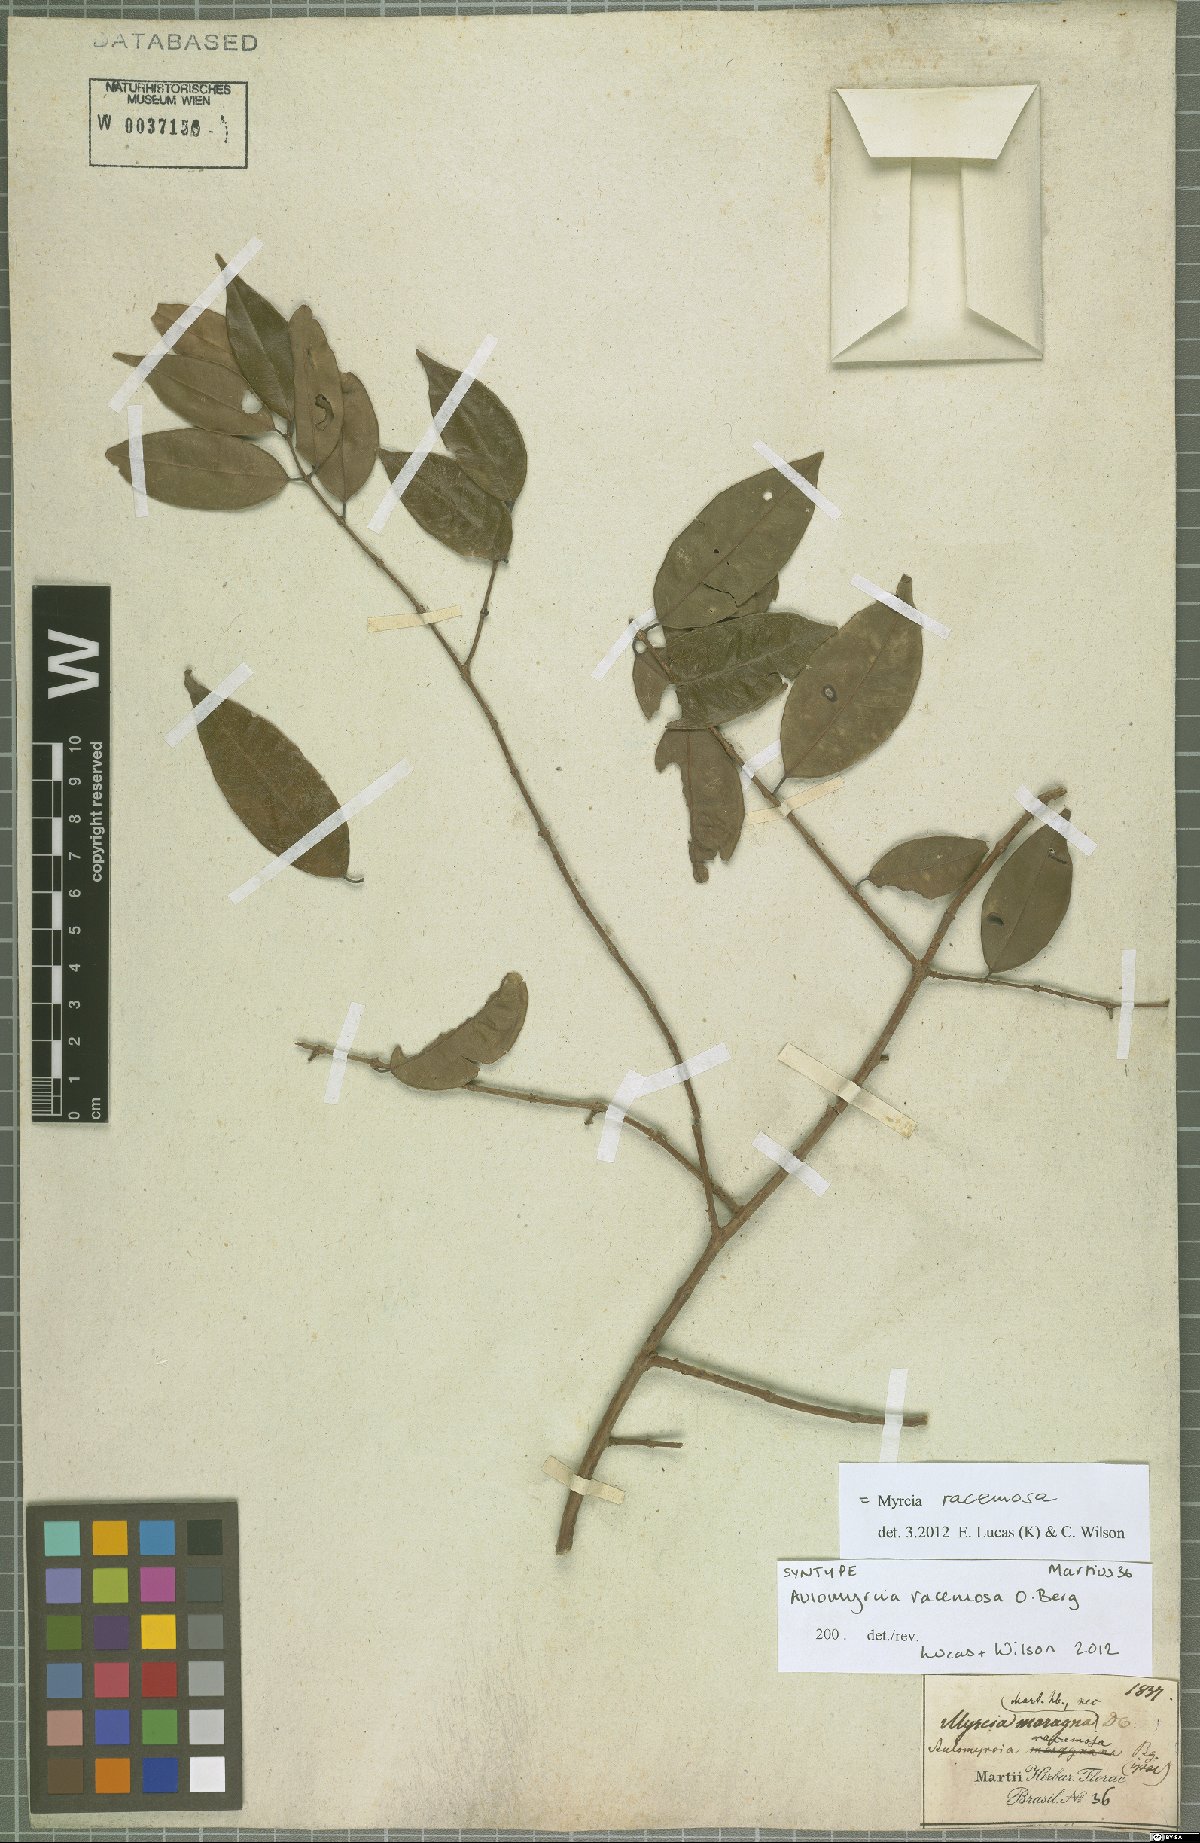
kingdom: Plantae
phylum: Tracheophyta
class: Magnoliopsida
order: Myrtales
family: Myrtaceae
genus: Myrcia
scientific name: Myrcia racemosa
